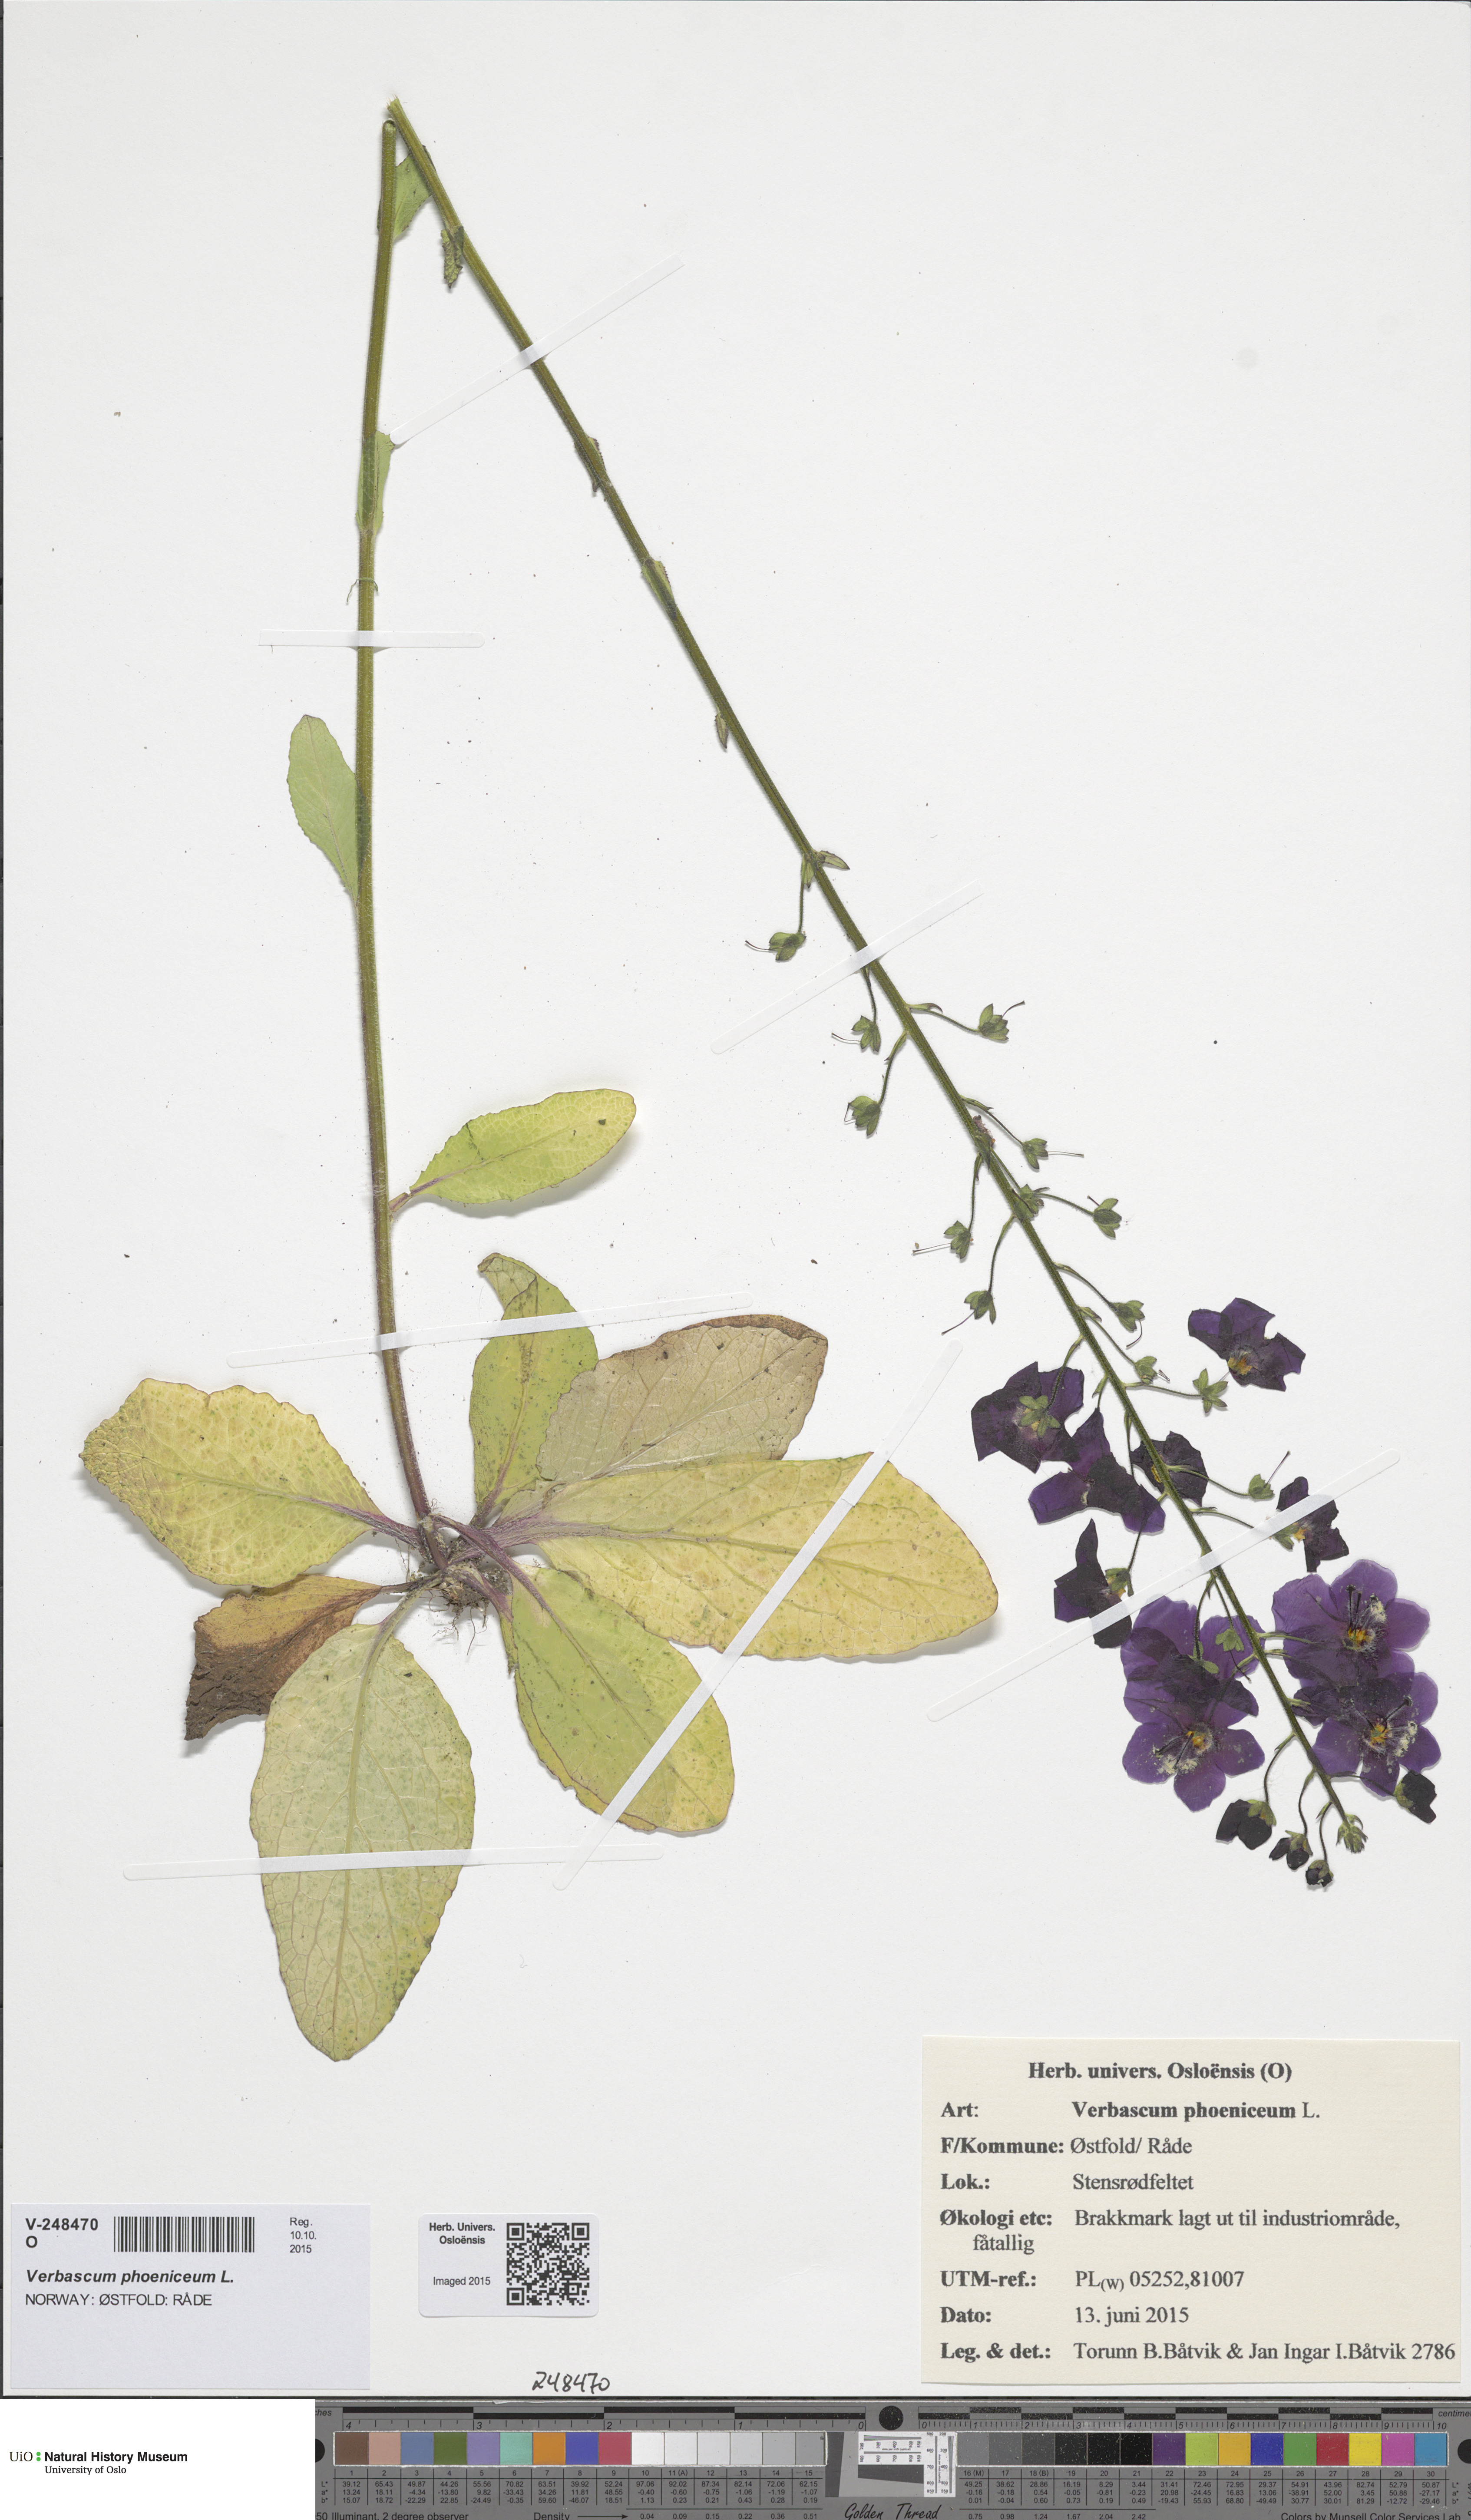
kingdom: Plantae
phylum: Tracheophyta
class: Magnoliopsida
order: Lamiales
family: Scrophulariaceae
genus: Verbascum
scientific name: Verbascum phoeniceum
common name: Purple mullein
